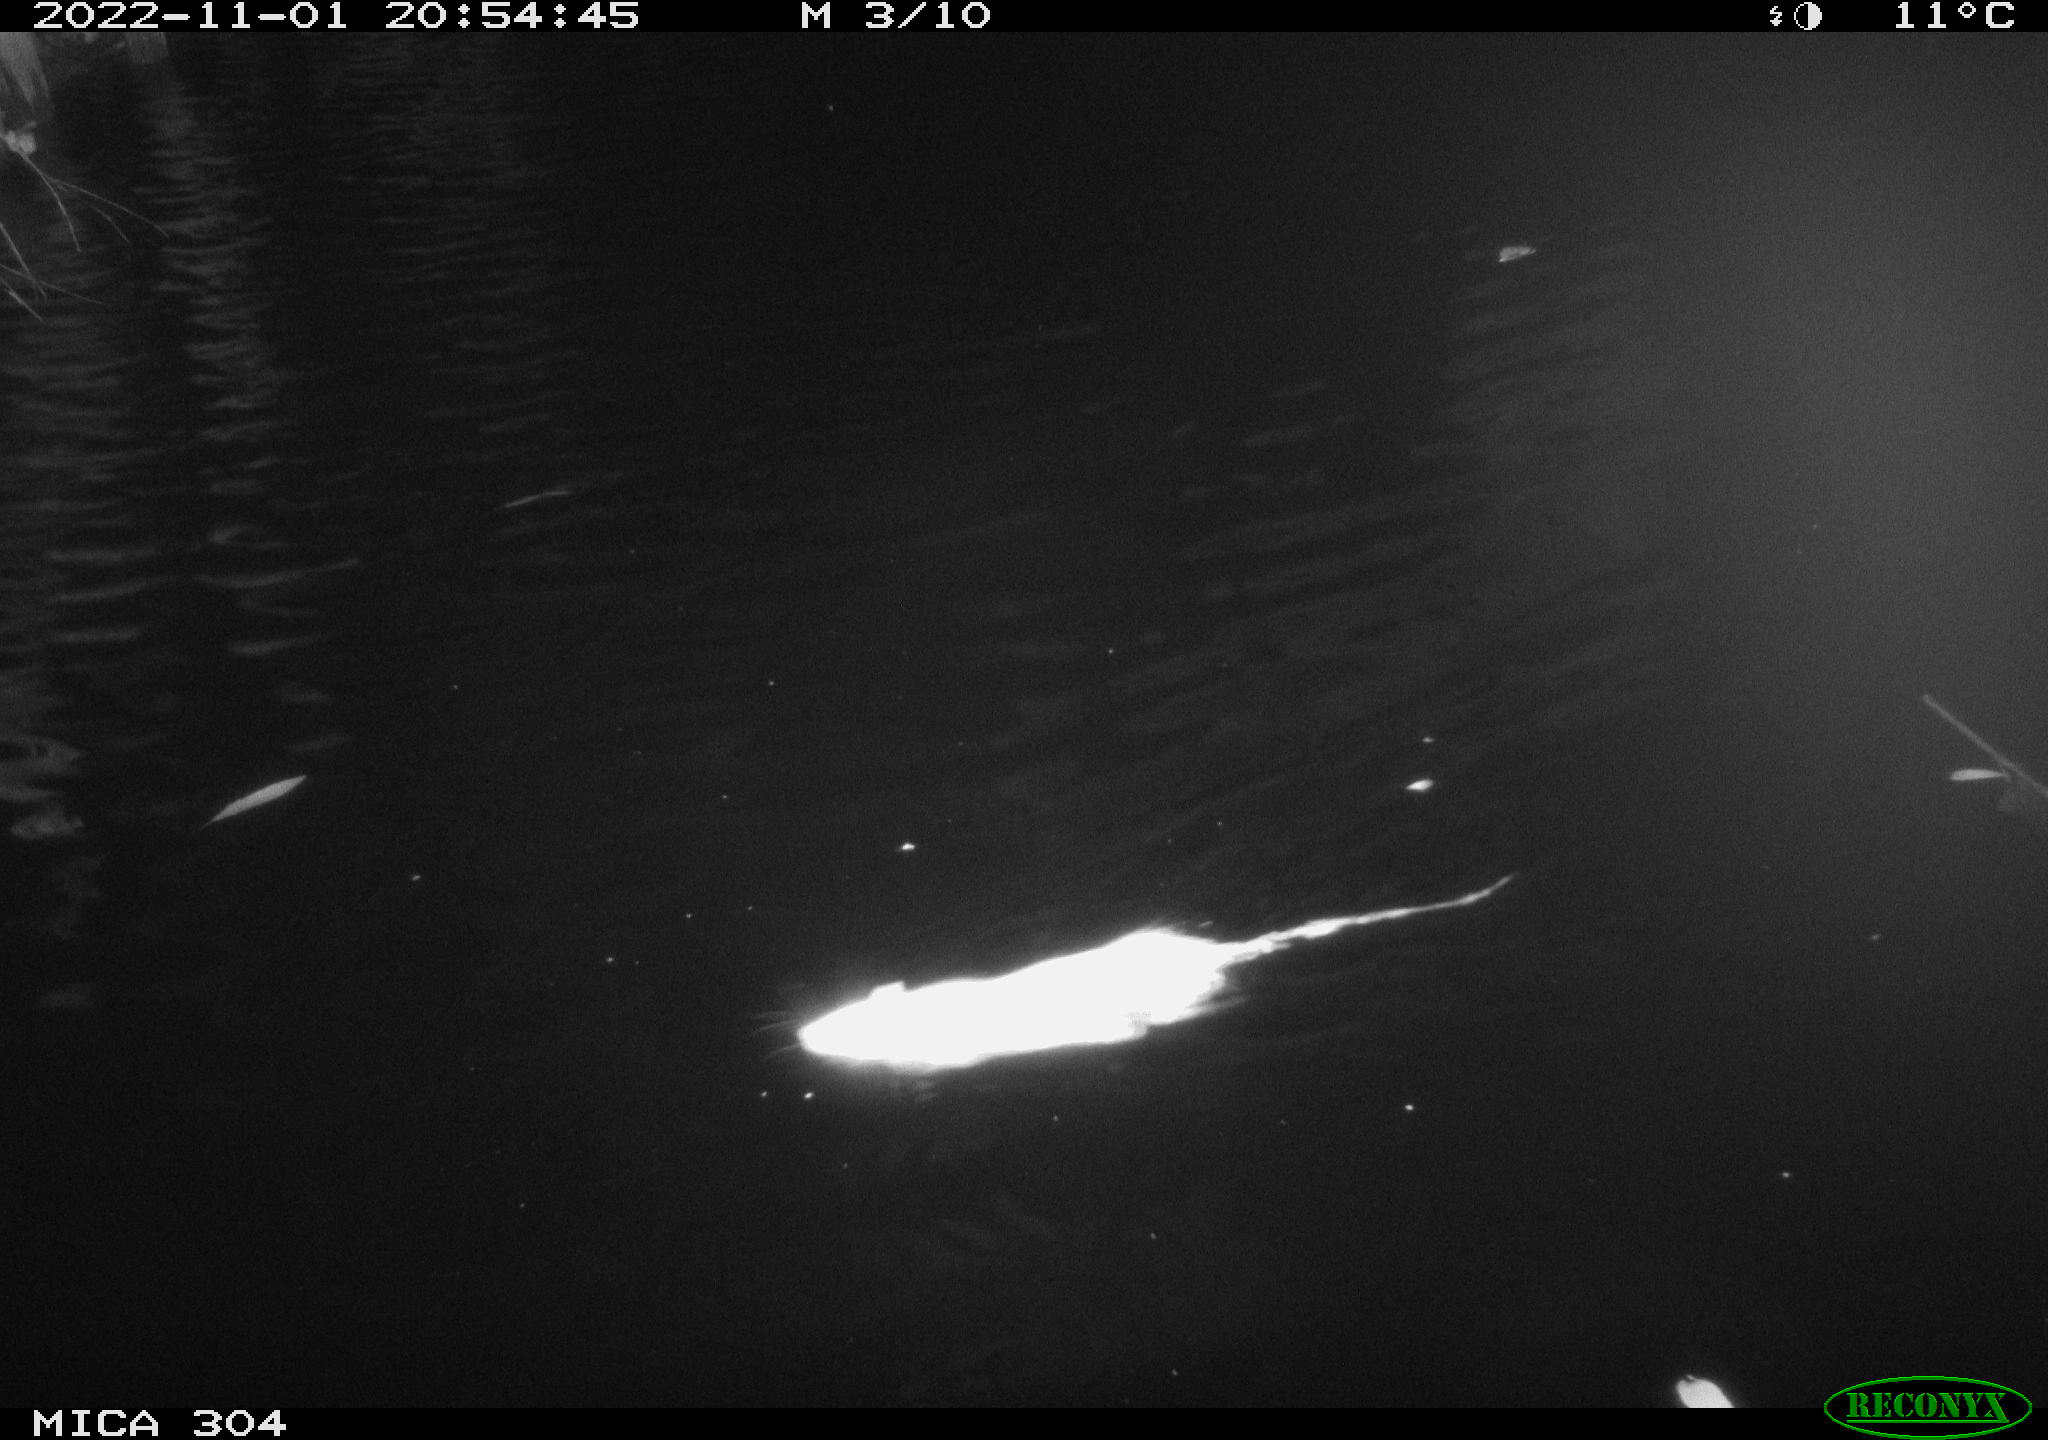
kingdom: Animalia
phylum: Chordata
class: Mammalia
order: Rodentia
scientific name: Rodentia
